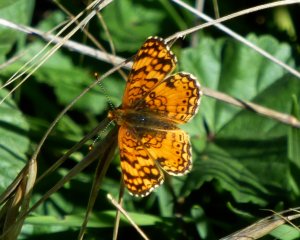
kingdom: Animalia
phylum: Arthropoda
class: Insecta
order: Lepidoptera
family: Nymphalidae
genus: Eresia
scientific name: Eresia aveyrona
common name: Mylitta Crescent
